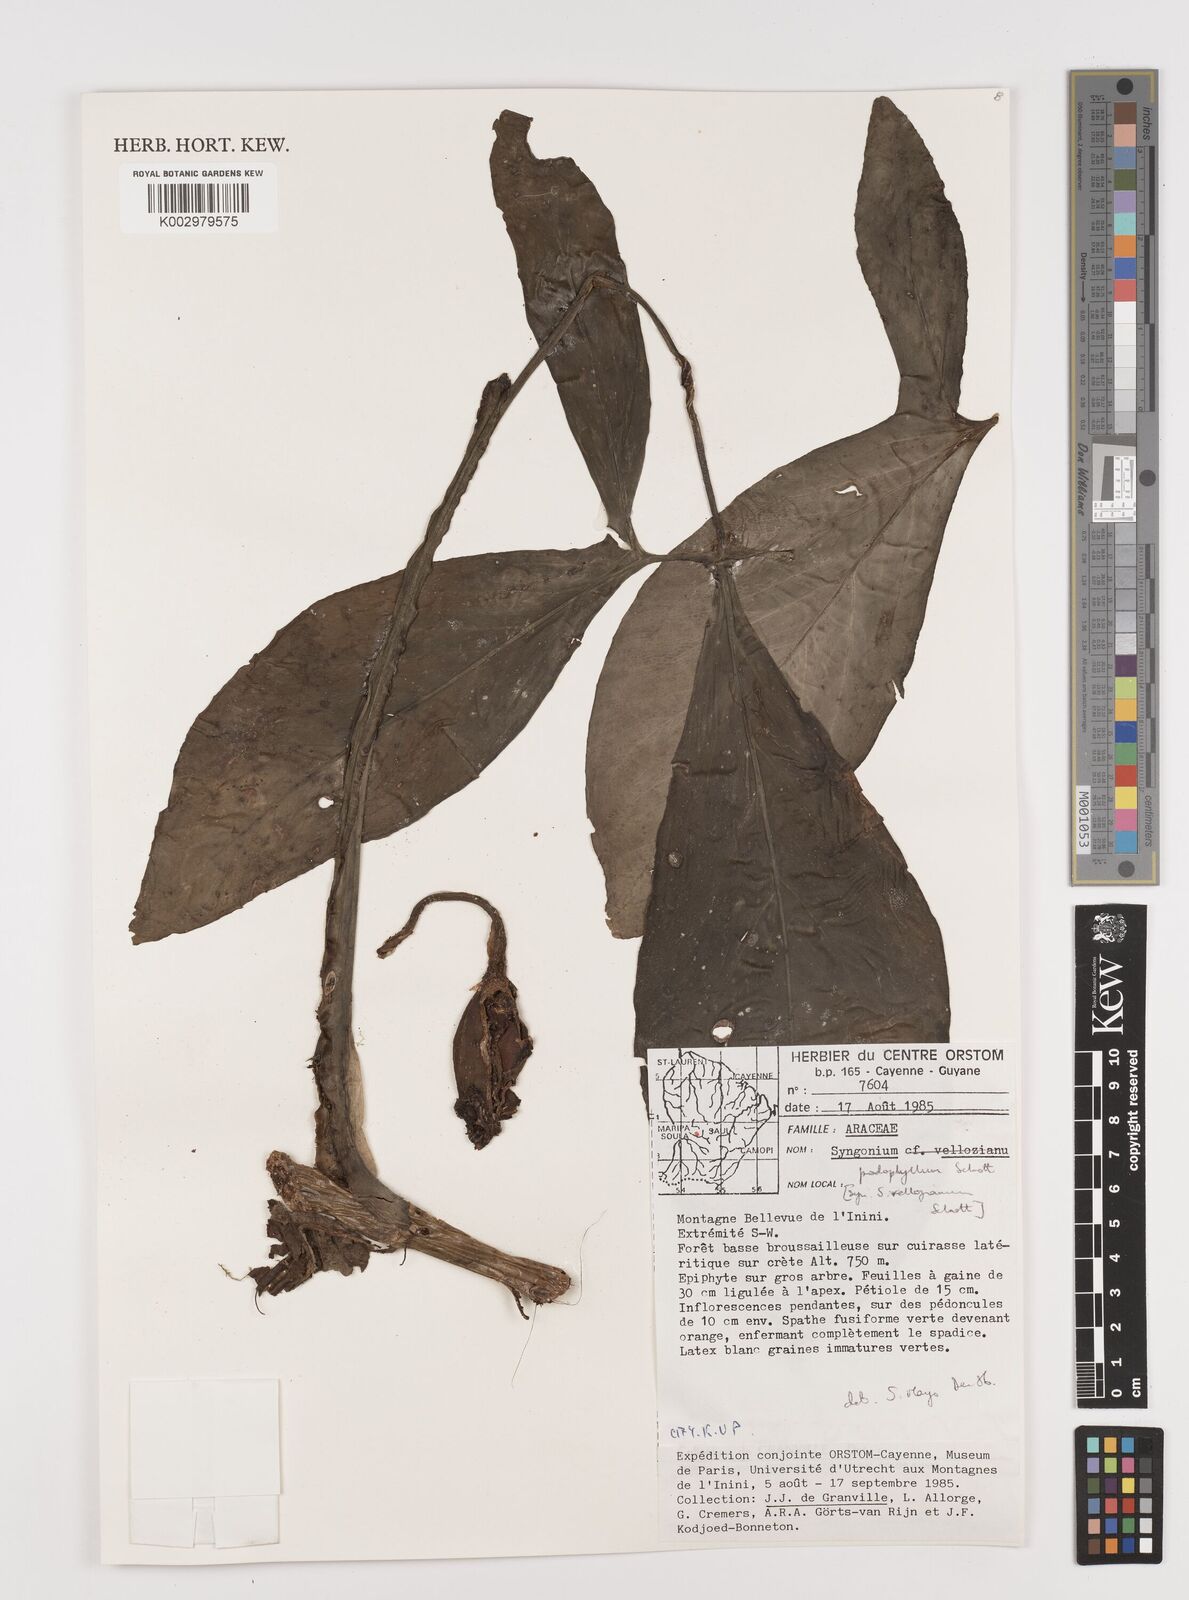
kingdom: Plantae
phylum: Tracheophyta
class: Liliopsida
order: Alismatales
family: Araceae
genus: Syngonium
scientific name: Syngonium podophyllum
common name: American evergreen
